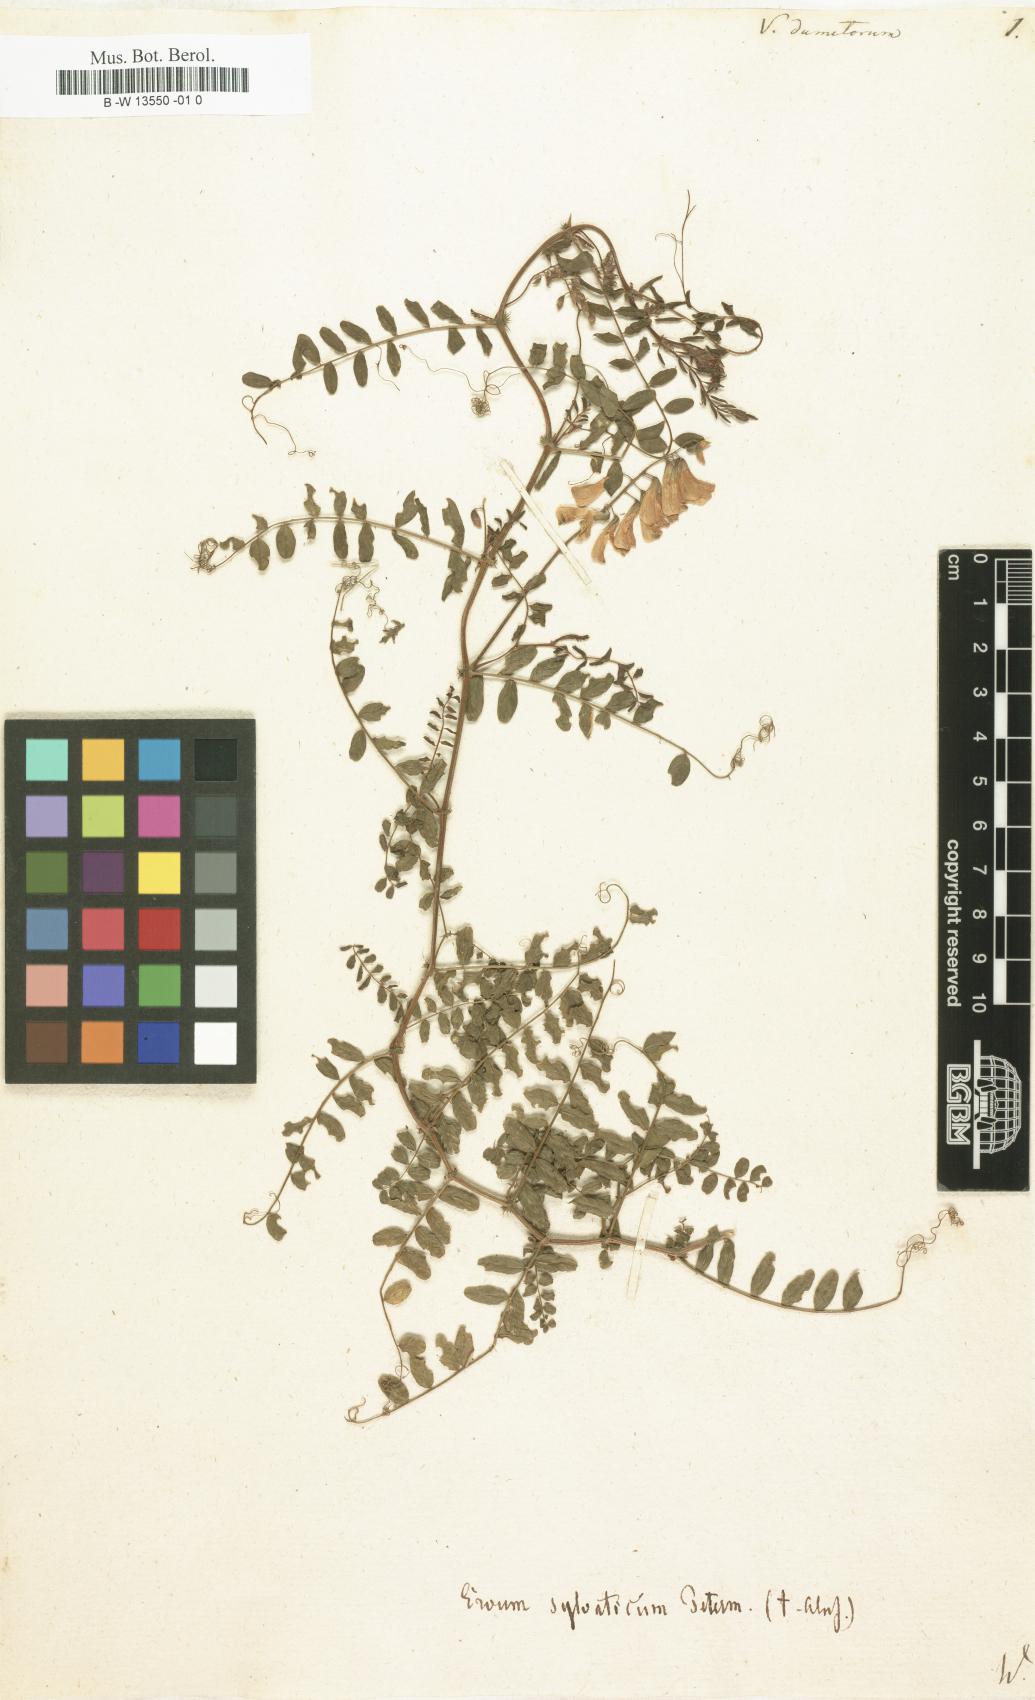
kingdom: Plantae
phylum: Tracheophyta
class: Magnoliopsida
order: Fabales
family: Fabaceae
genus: Vicia
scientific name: Vicia dumetorum
